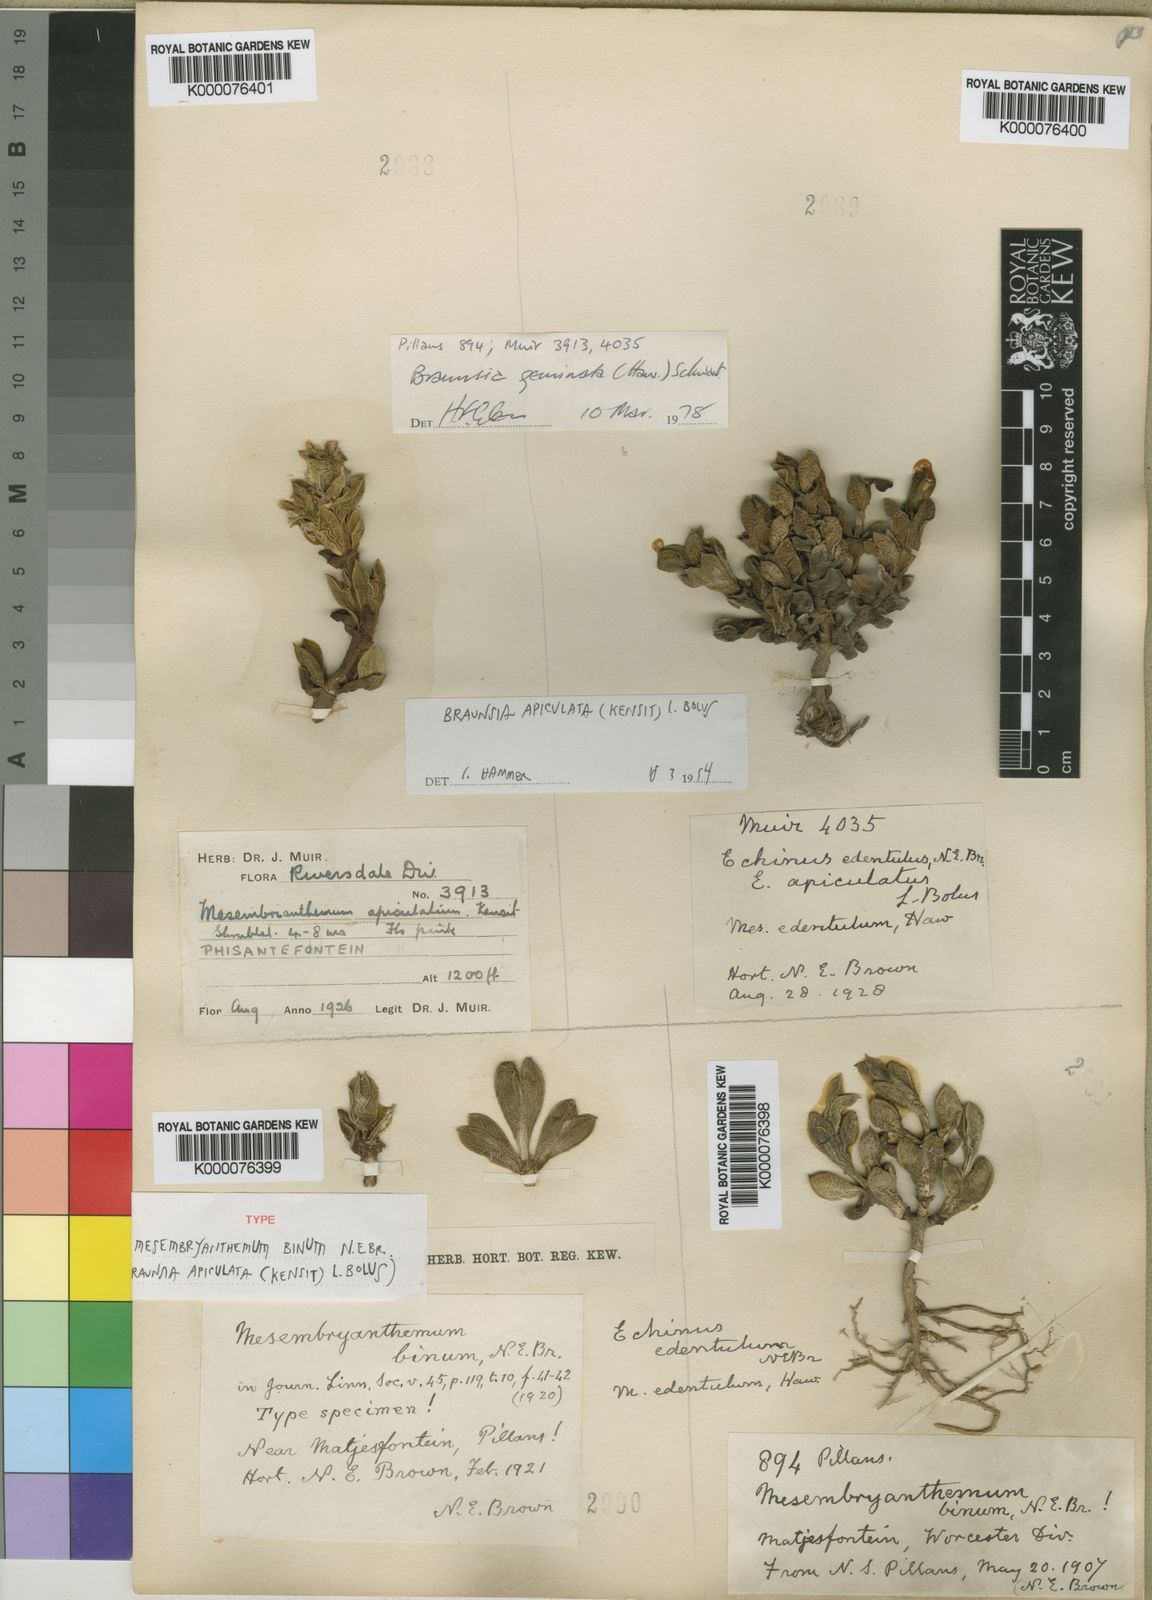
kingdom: Plantae
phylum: Tracheophyta
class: Magnoliopsida
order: Caryophyllales
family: Aizoaceae
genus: Braunsia
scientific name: Braunsia apiculata
